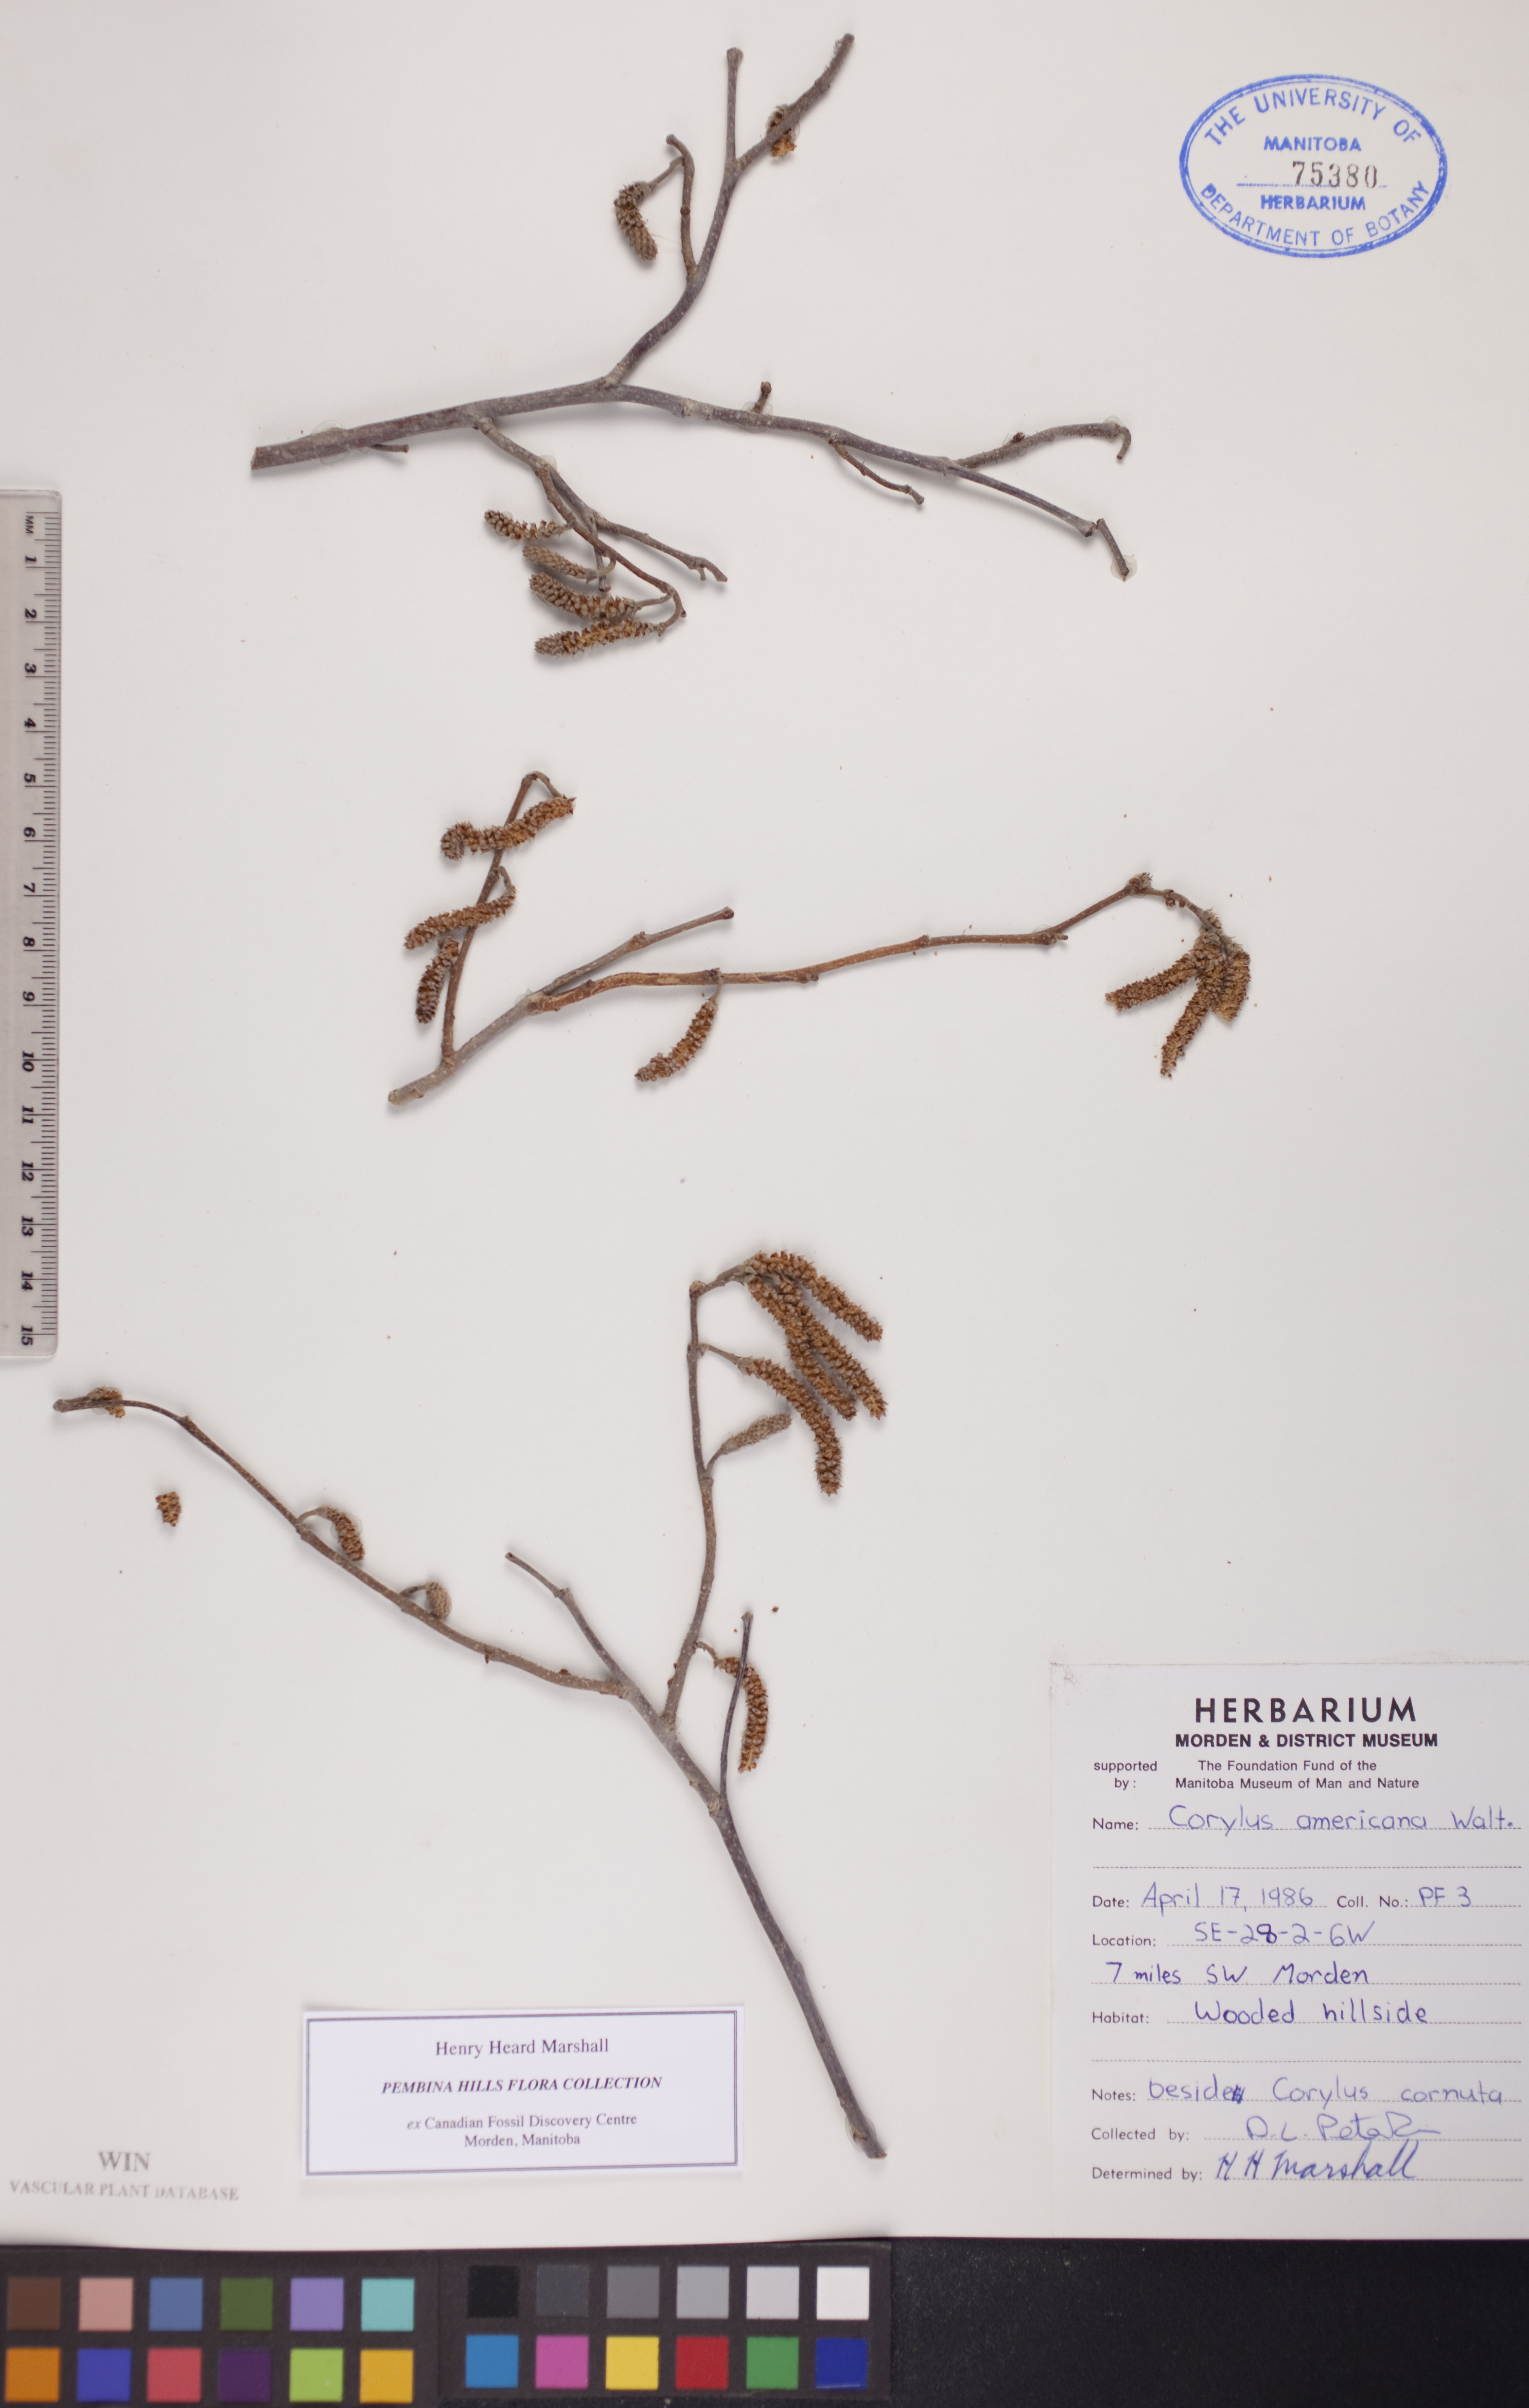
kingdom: Plantae
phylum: Tracheophyta
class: Magnoliopsida
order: Fagales
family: Betulaceae
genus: Corylus
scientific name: Corylus americana
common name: American hazel
